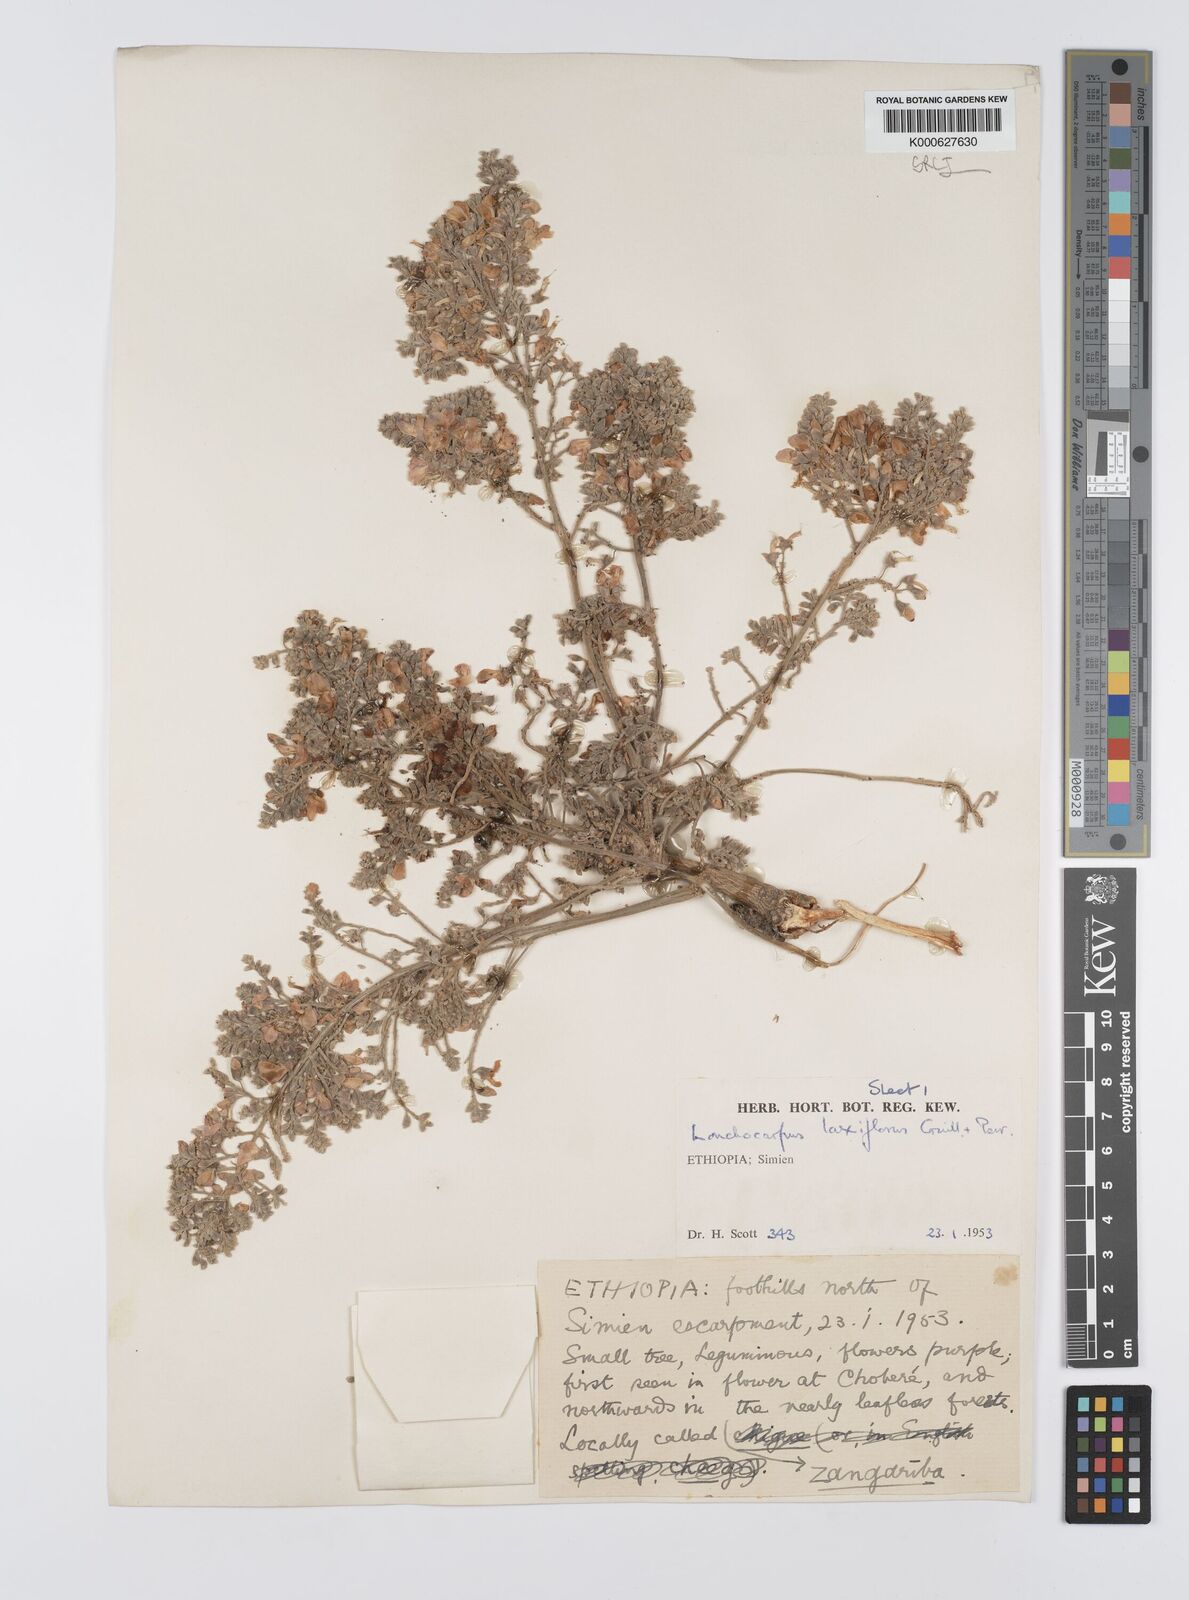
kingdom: Plantae
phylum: Tracheophyta
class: Magnoliopsida
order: Fabales
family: Fabaceae
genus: Philenoptera
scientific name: Philenoptera laxiflora
